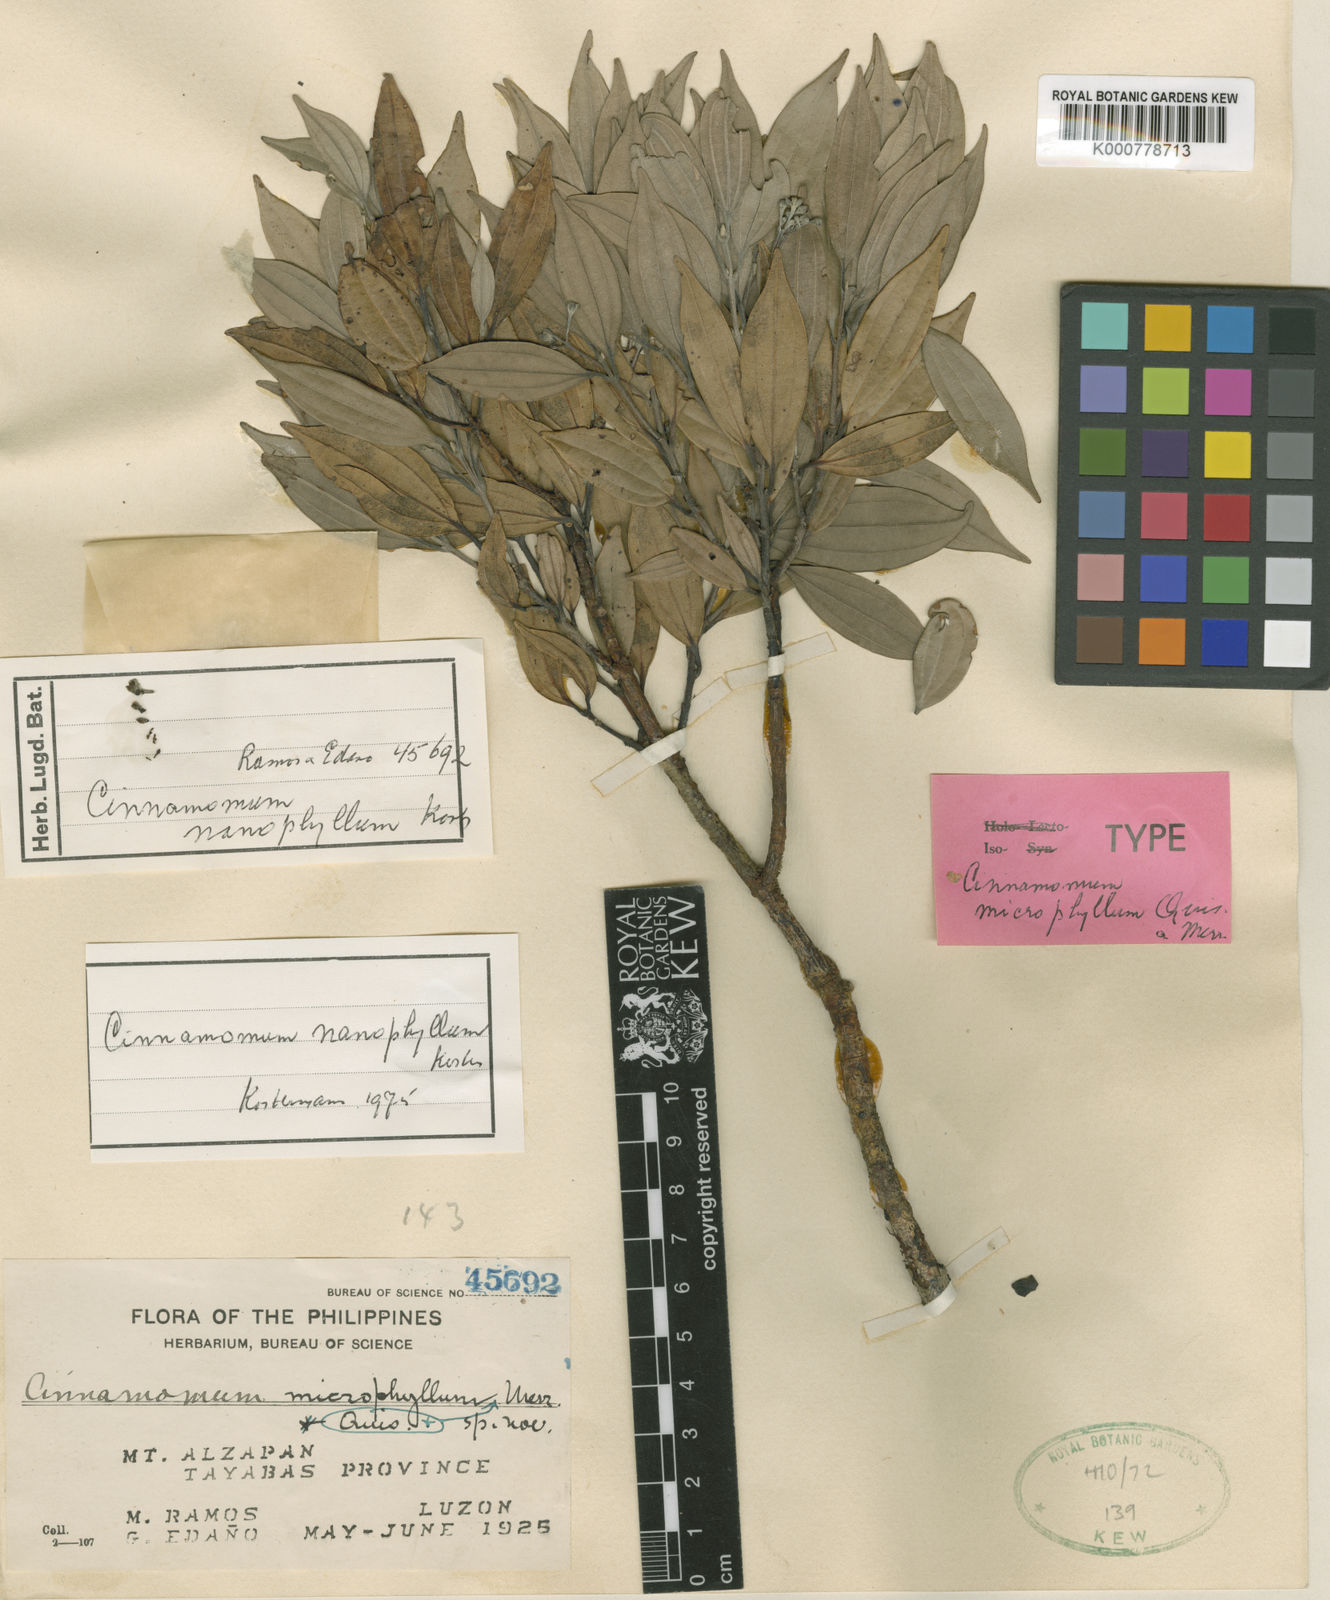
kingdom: Plantae
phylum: Tracheophyta
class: Magnoliopsida
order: Laurales
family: Lauraceae
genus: Cinnamomum
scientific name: Cinnamomum nanophyllum
